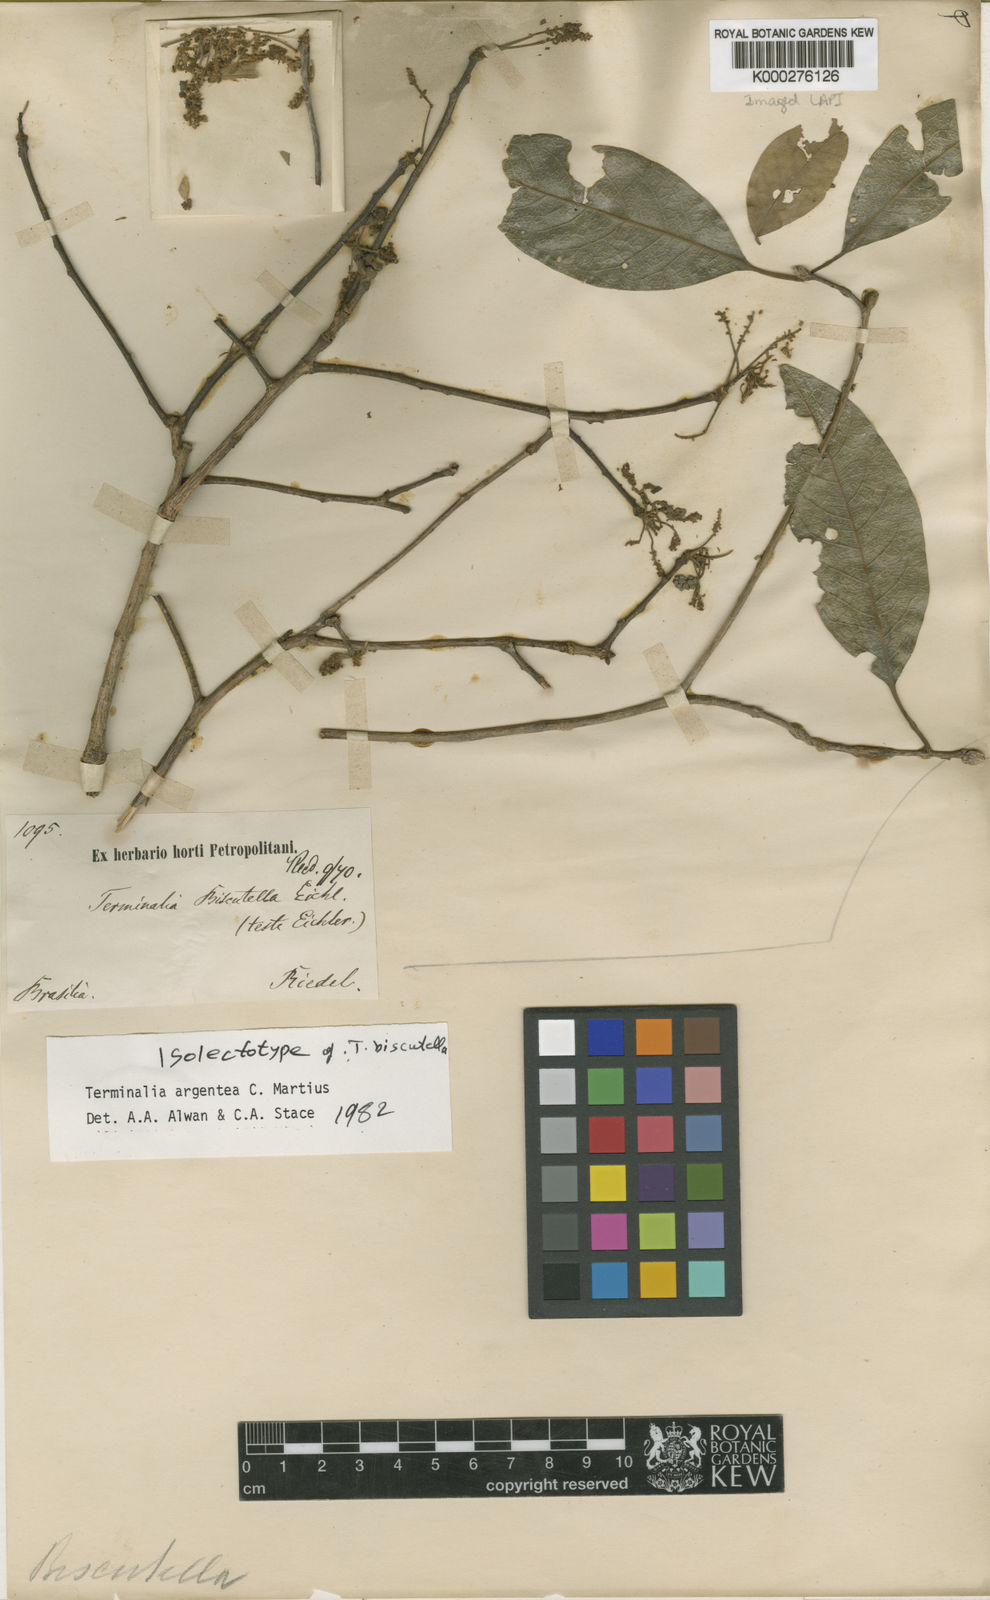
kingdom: Plantae
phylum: Tracheophyta
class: Magnoliopsida
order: Myrtales
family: Combretaceae
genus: Terminalia
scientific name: Terminalia argentea
